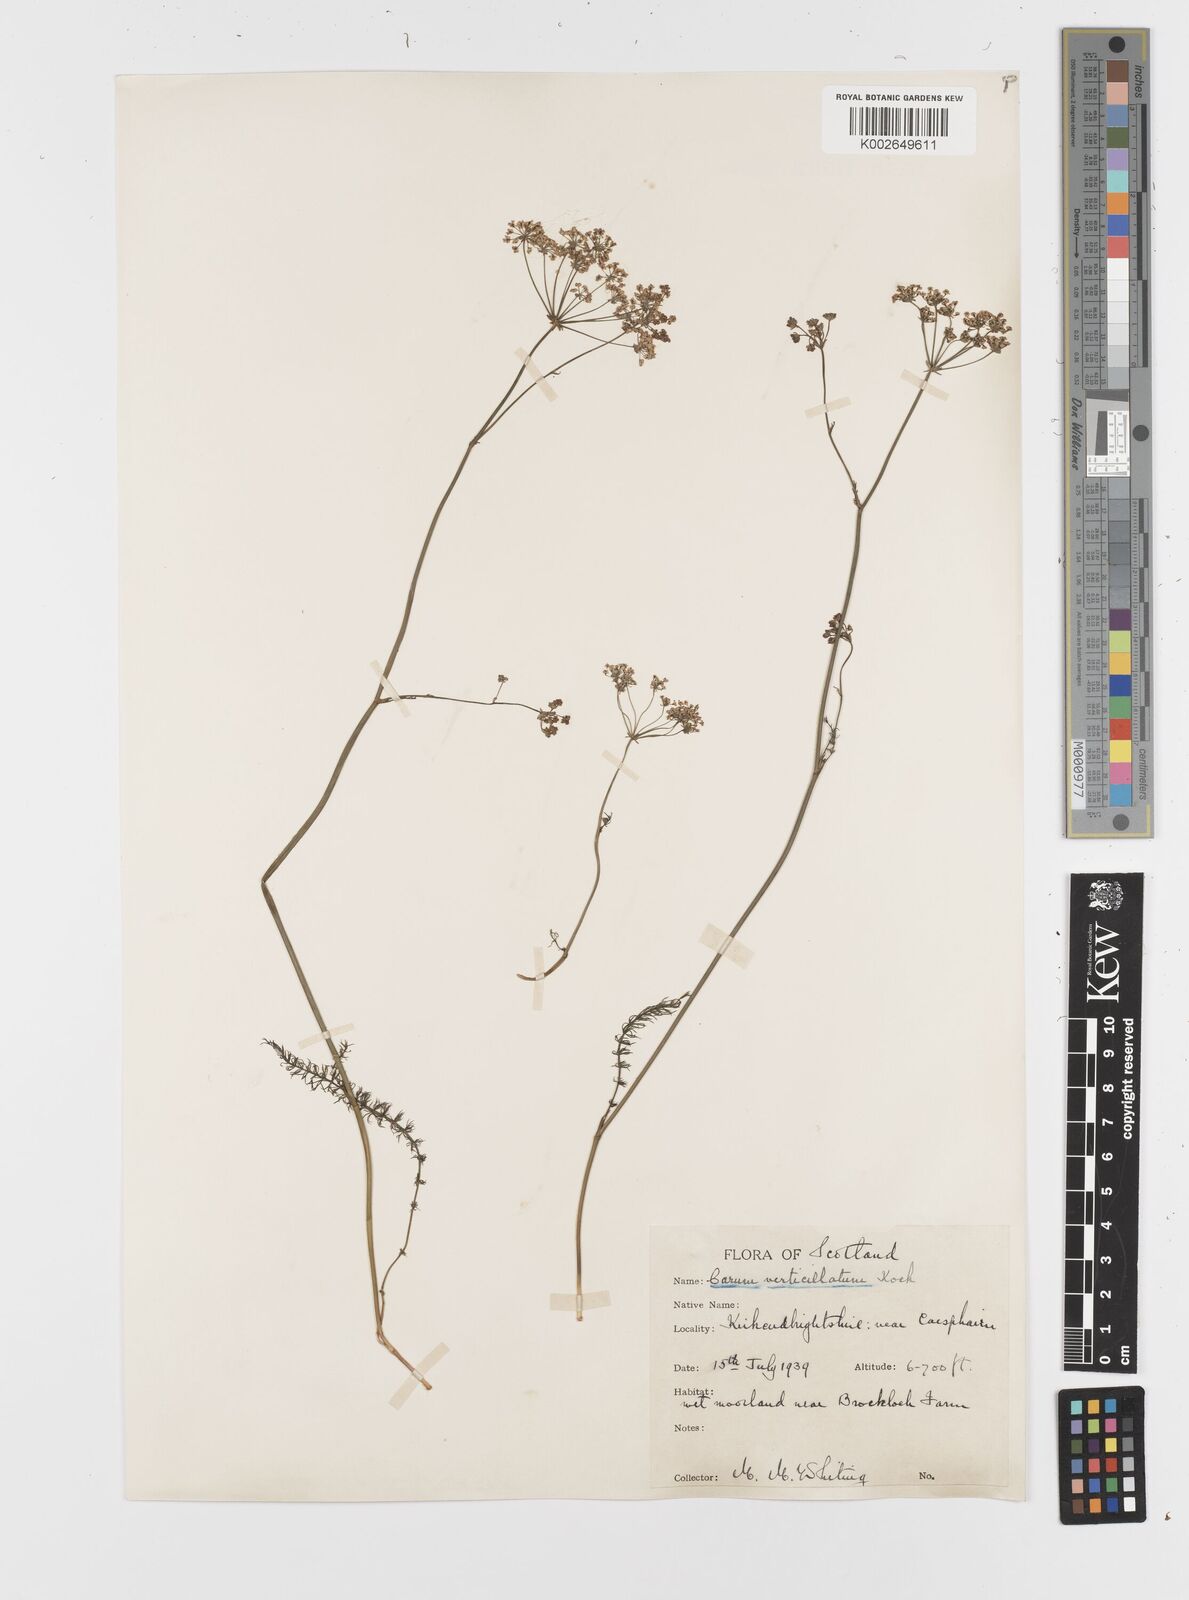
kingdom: Plantae
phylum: Tracheophyta
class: Magnoliopsida
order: Apiales
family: Apiaceae
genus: Trocdaris
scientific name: Trocdaris verticillatum
